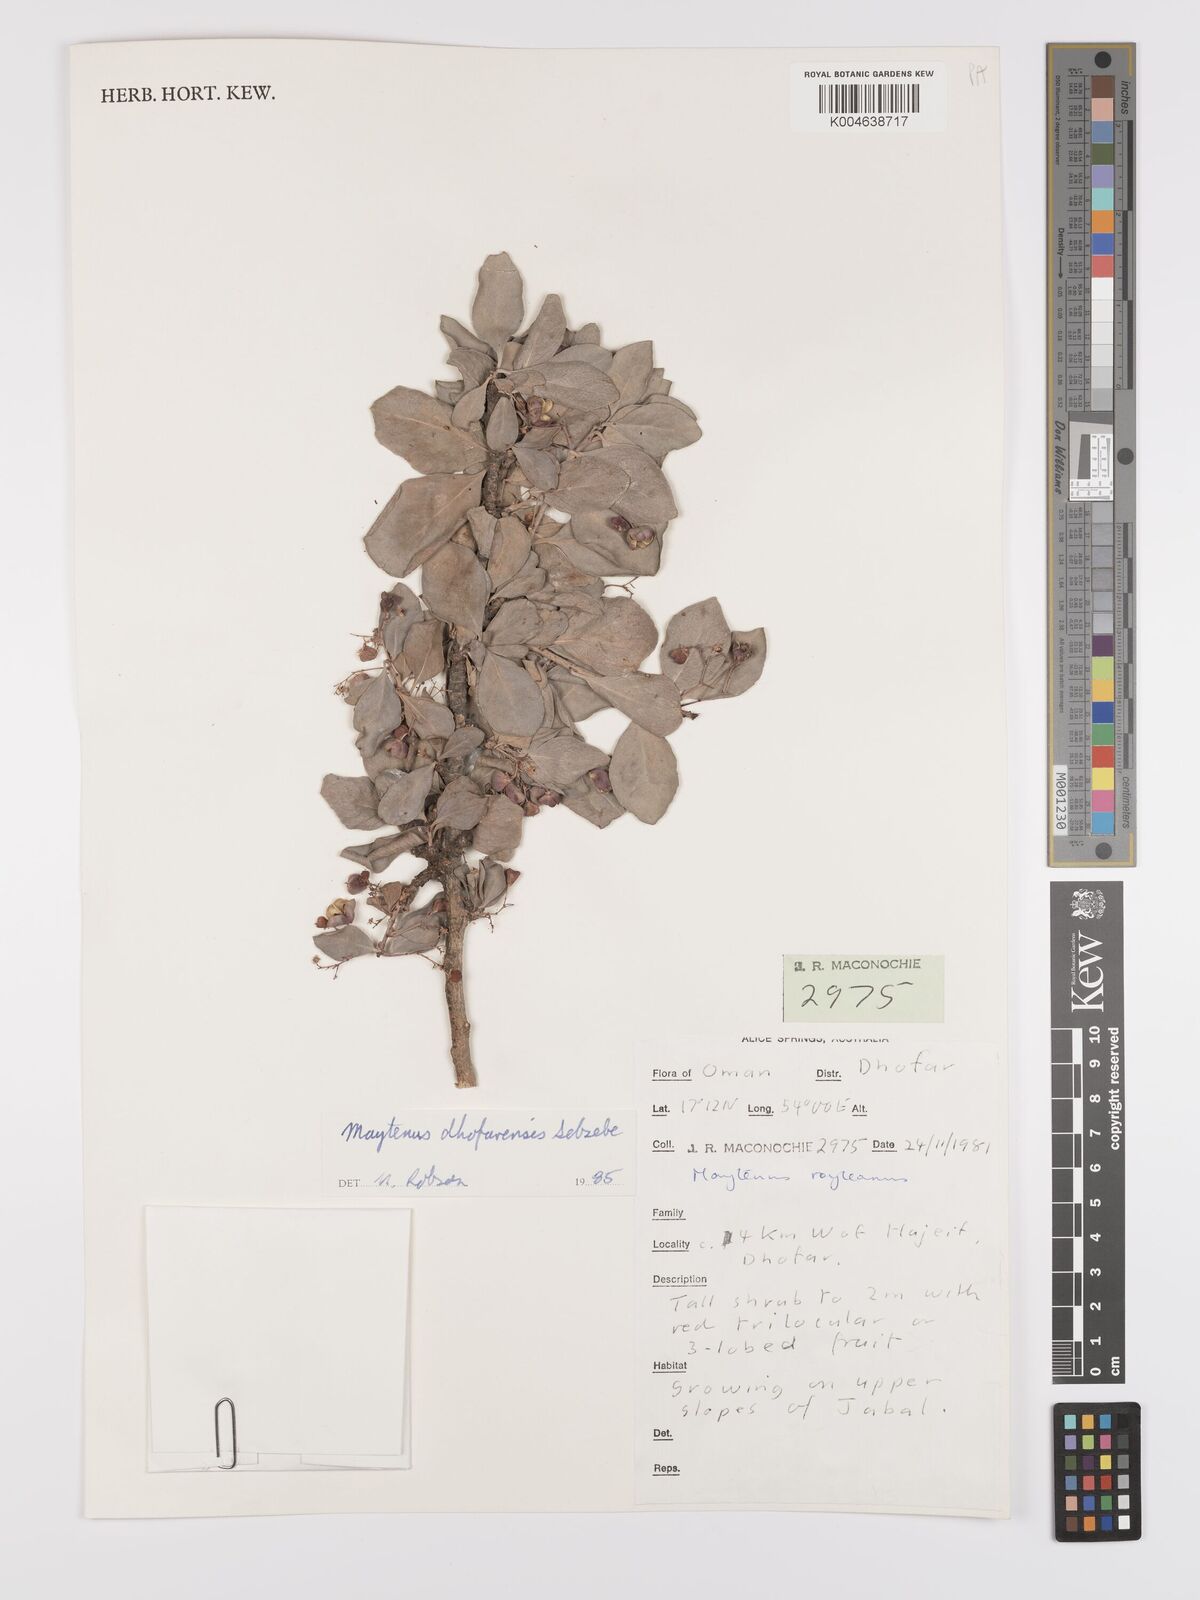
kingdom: Plantae
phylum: Tracheophyta
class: Magnoliopsida
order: Celastrales
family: Celastraceae
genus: Gymnosporia
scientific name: Gymnosporia dhofarensis
